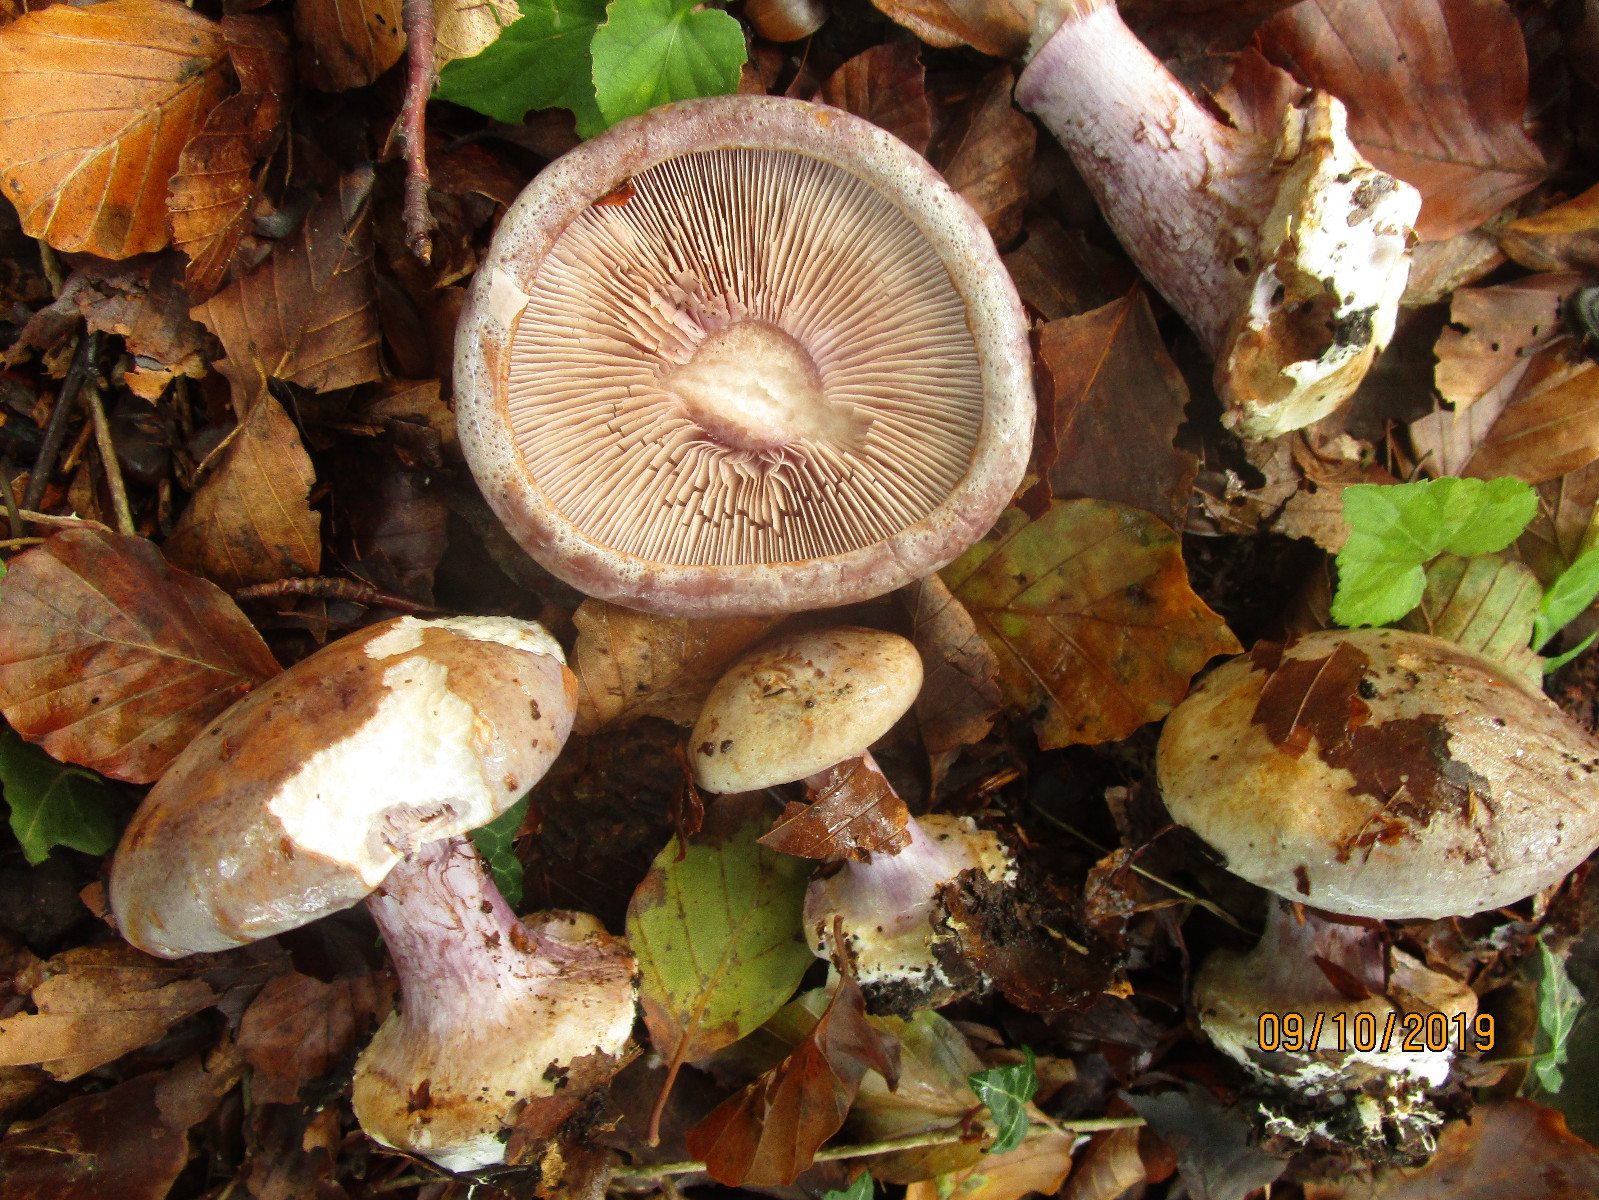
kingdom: Fungi
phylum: Basidiomycota
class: Agaricomycetes
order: Agaricales
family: Cortinariaceae
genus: Calonarius
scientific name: Calonarius suaveolens
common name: sødtduftende slørhat
